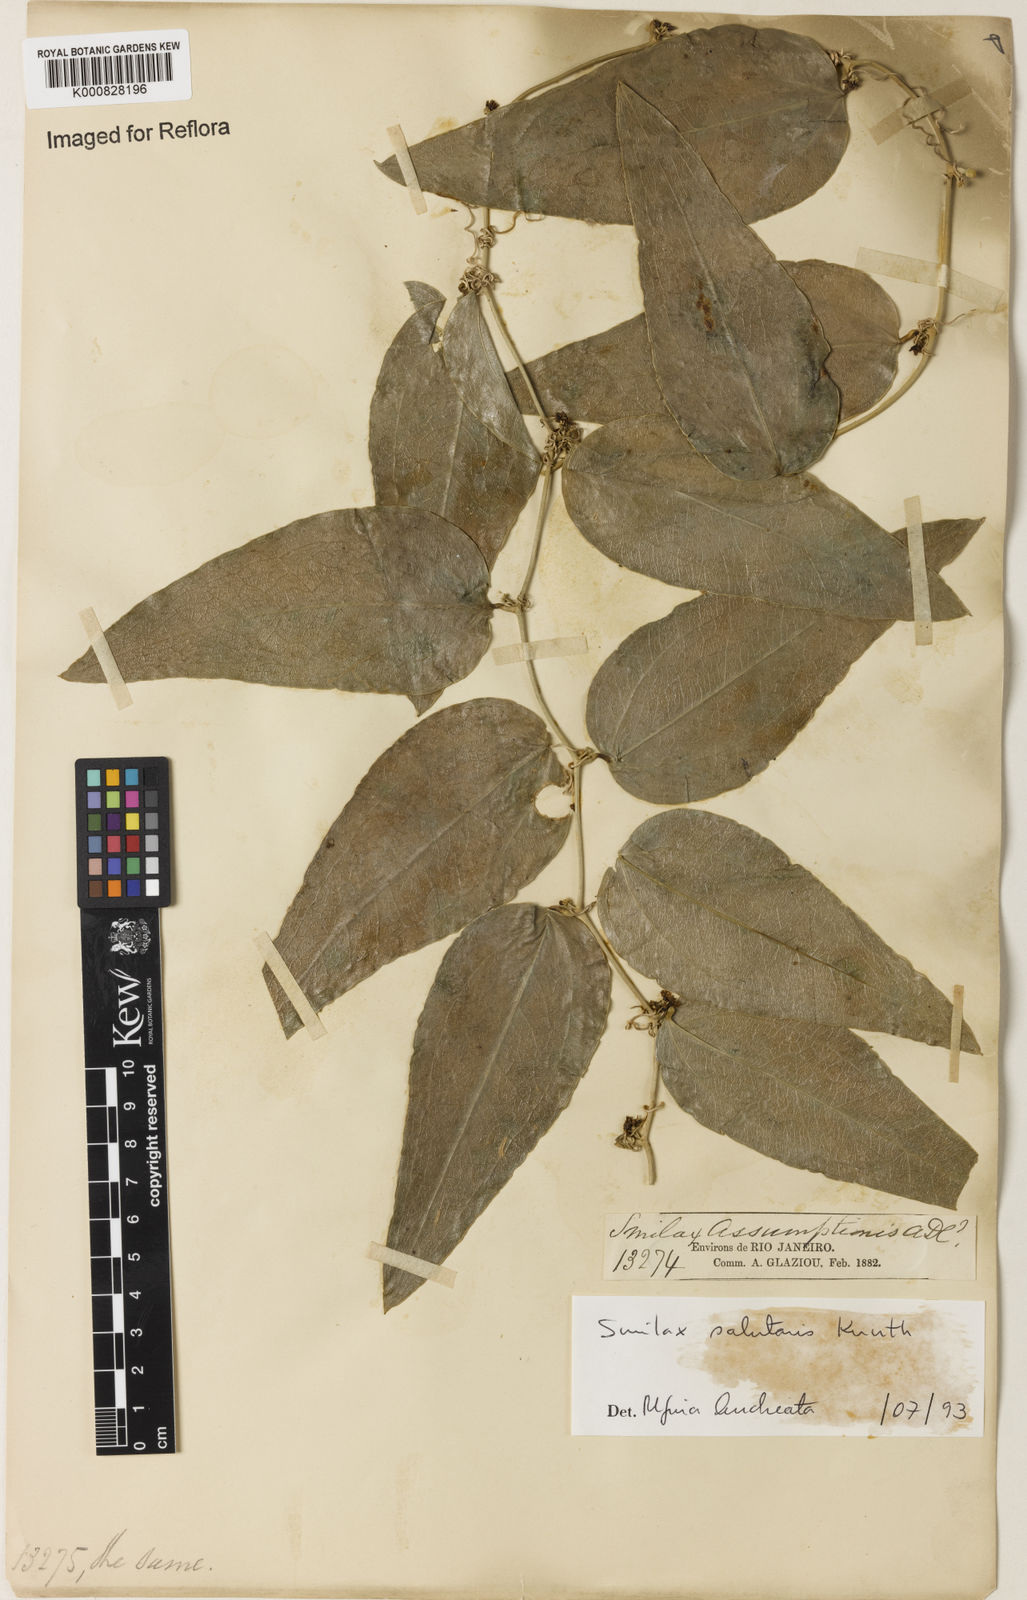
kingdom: Plantae
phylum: Tracheophyta
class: Liliopsida
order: Liliales
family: Smilacaceae
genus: Smilax
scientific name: Smilax subsessiliflora
